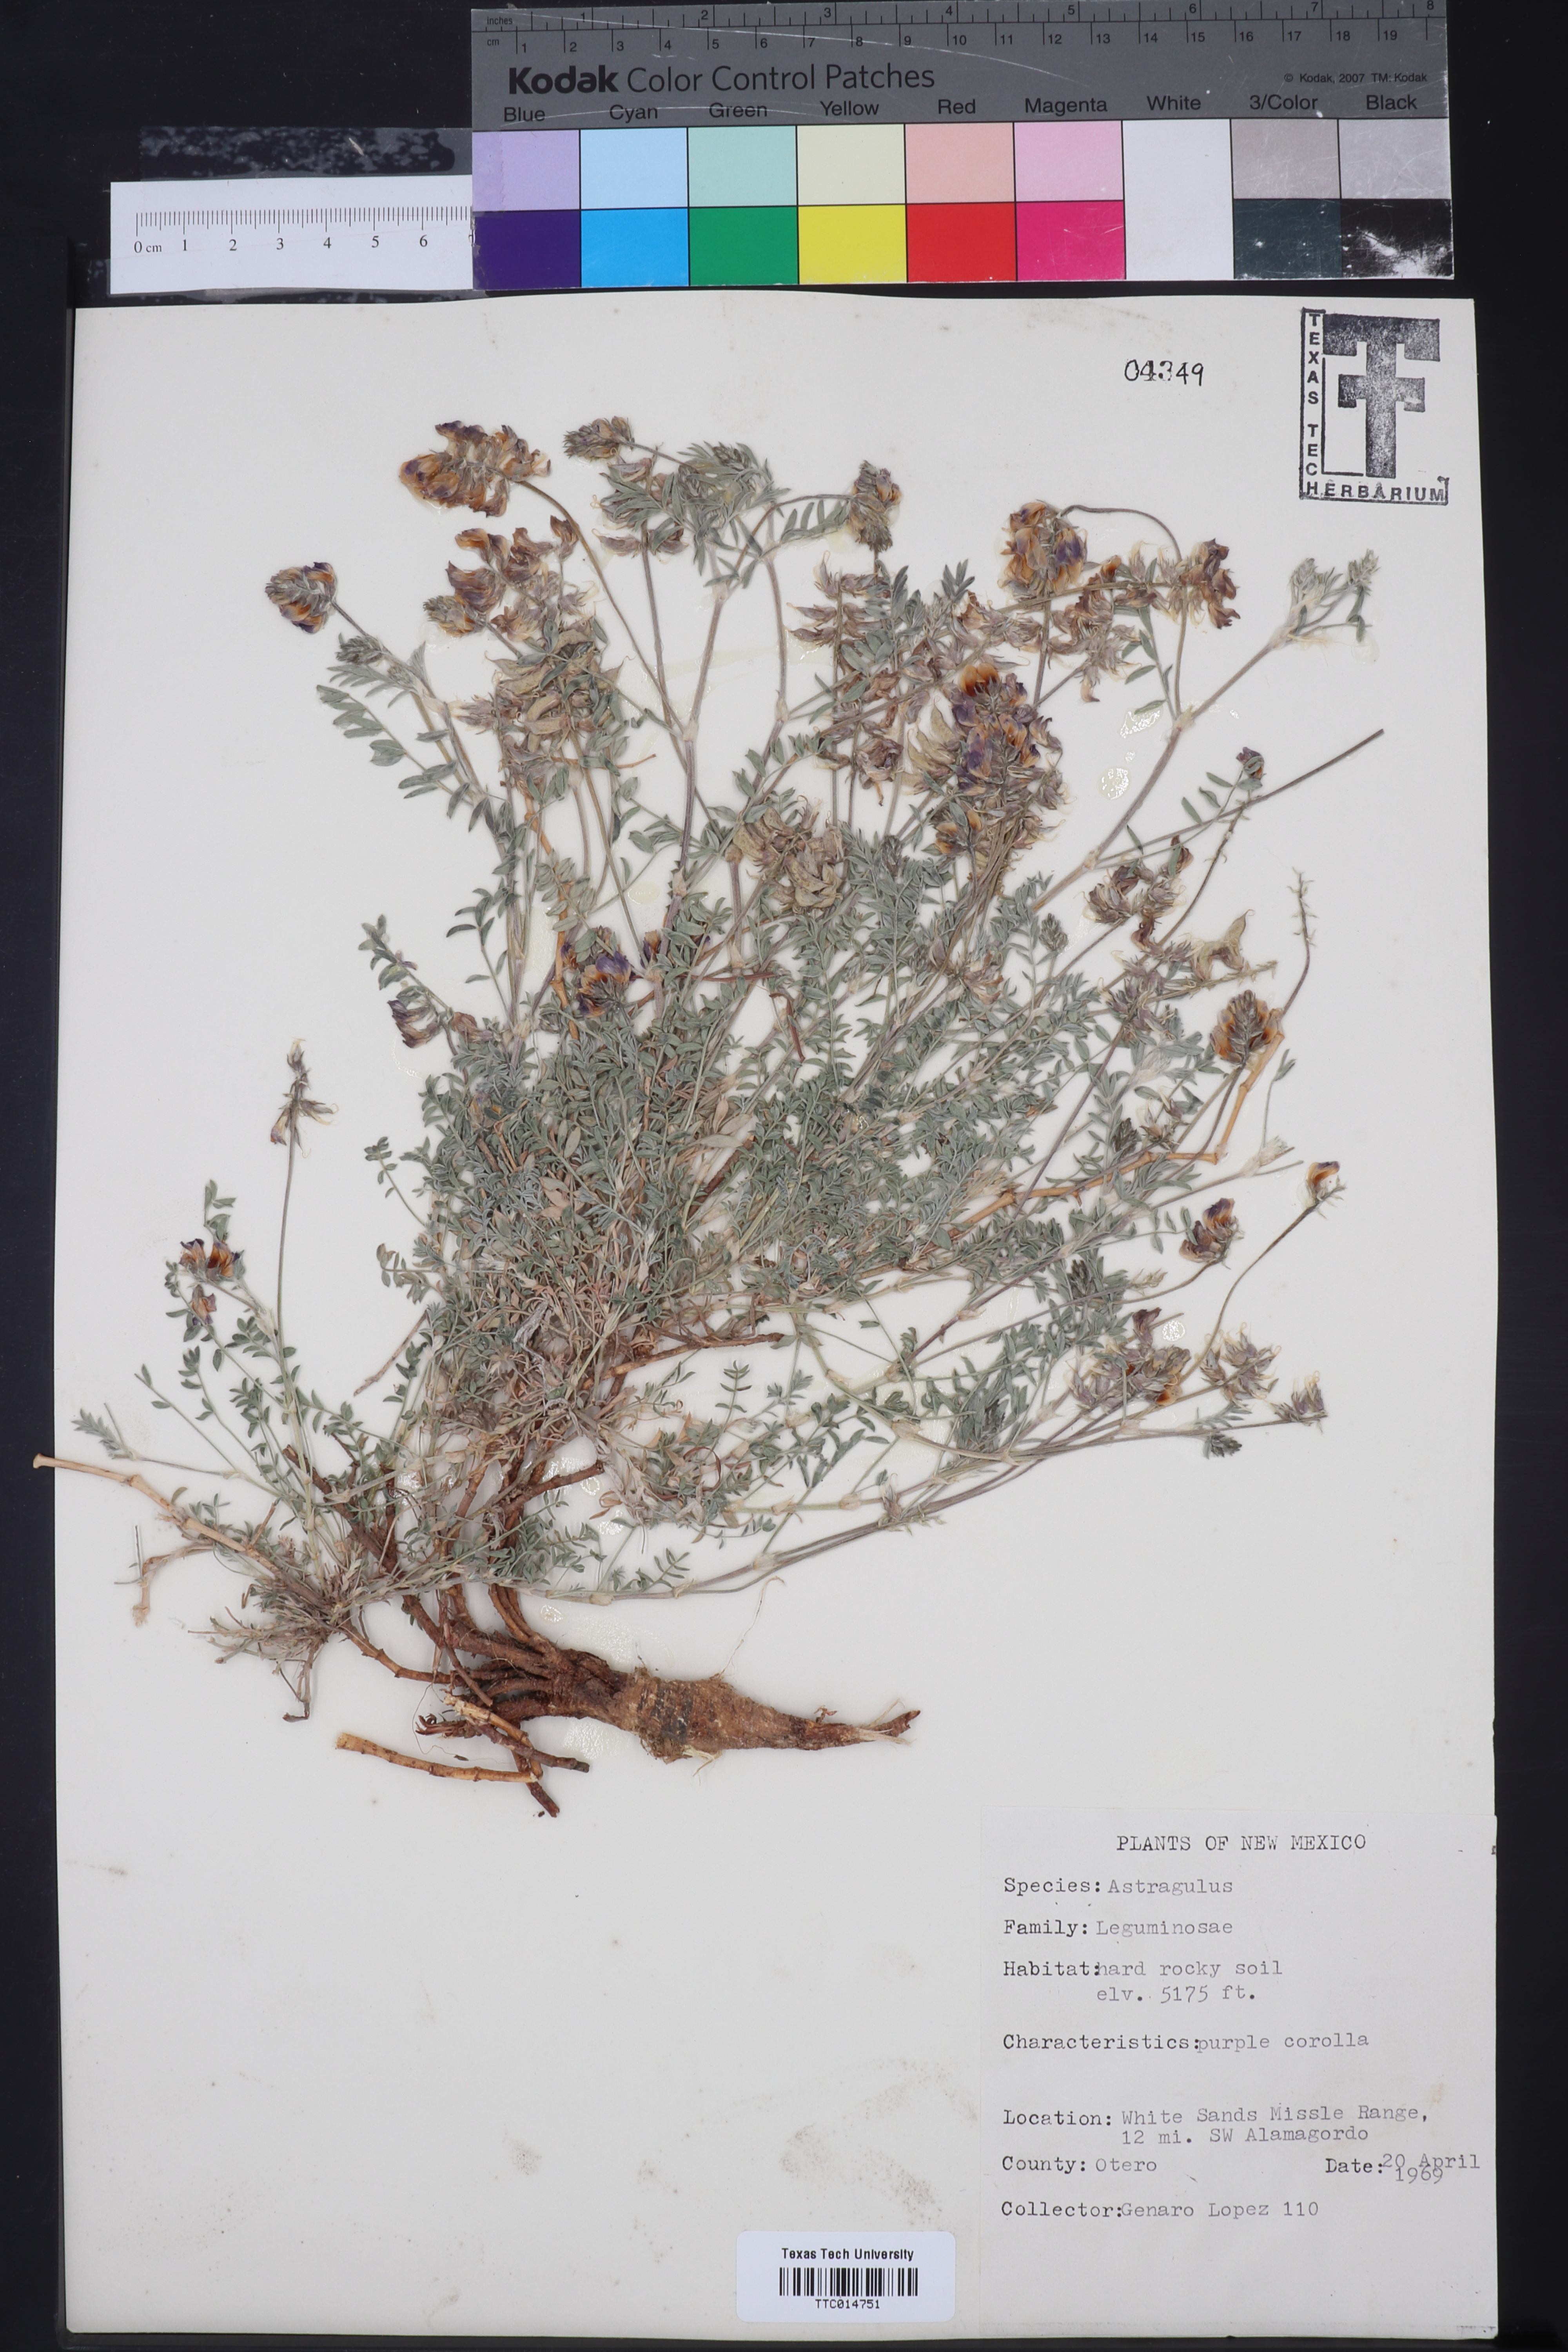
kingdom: Plantae
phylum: Tracheophyta
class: Magnoliopsida
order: Fabales
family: Fabaceae
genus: Astragalus
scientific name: Astragalus
